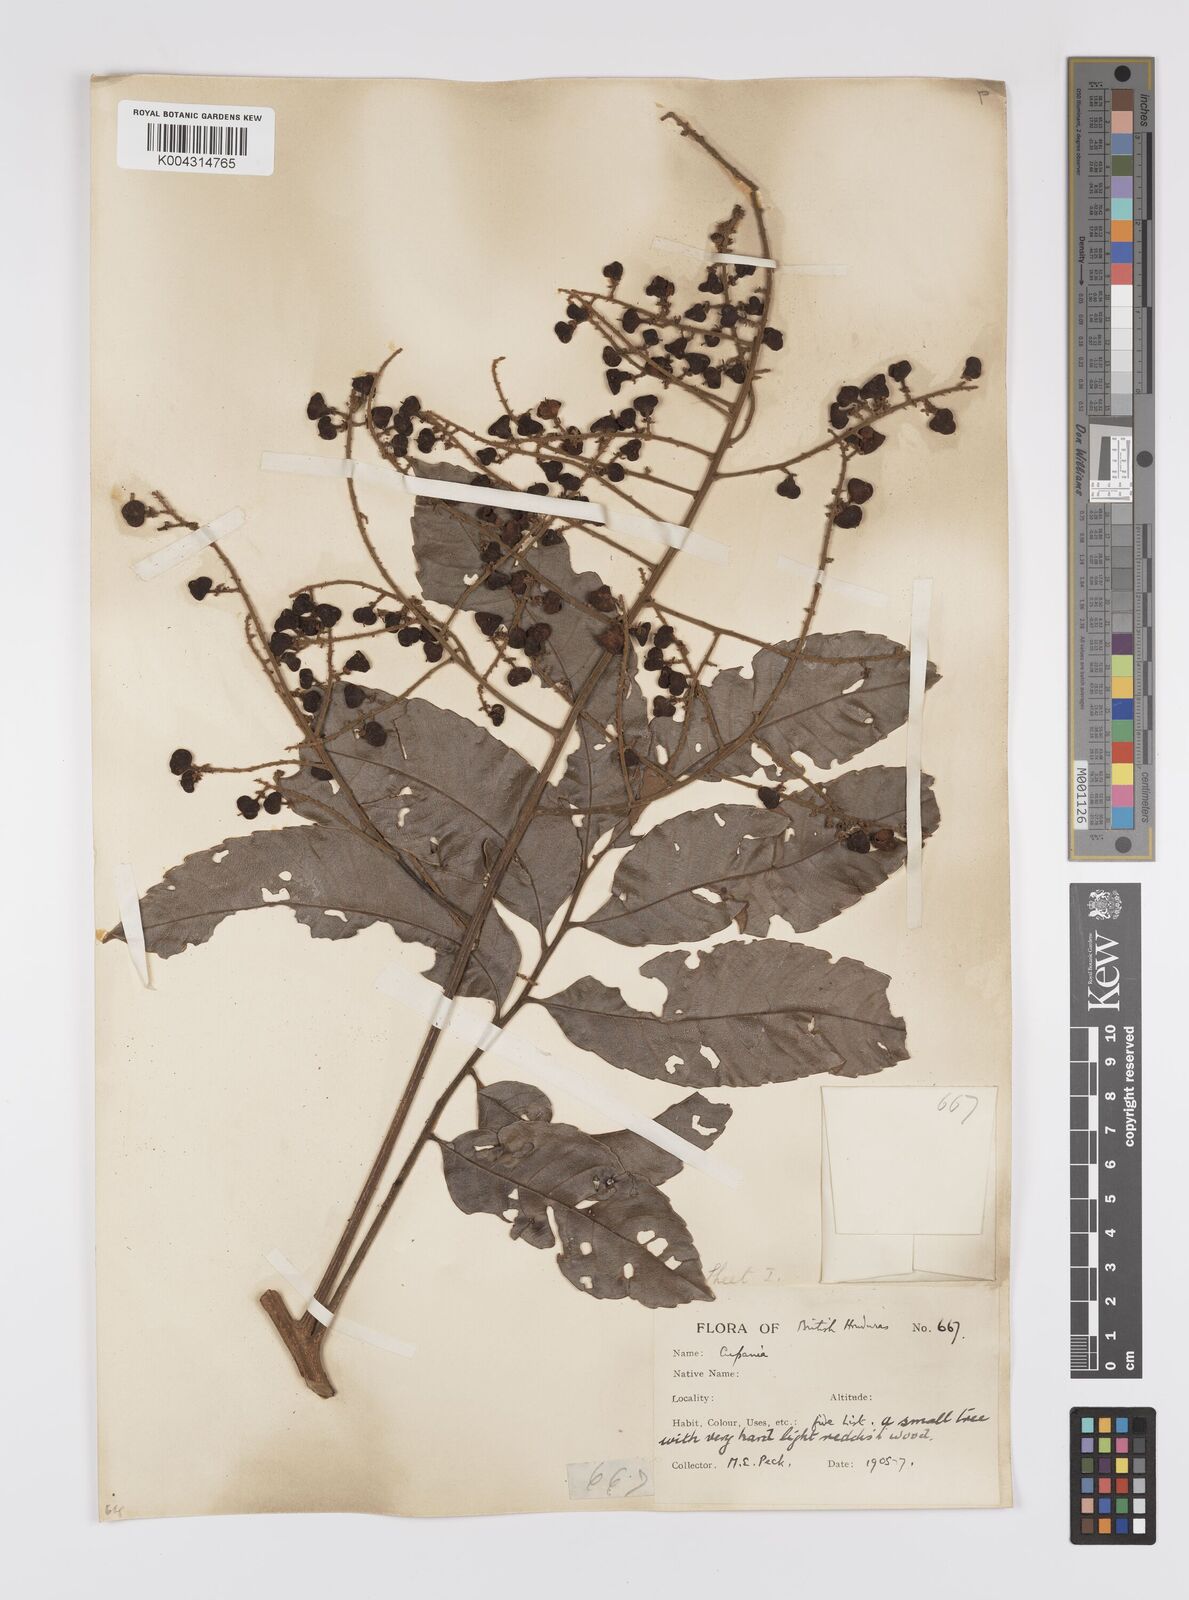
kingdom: Plantae
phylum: Tracheophyta
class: Magnoliopsida
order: Sapindales
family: Sapindaceae
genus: Cupania
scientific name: Cupania belizensis
